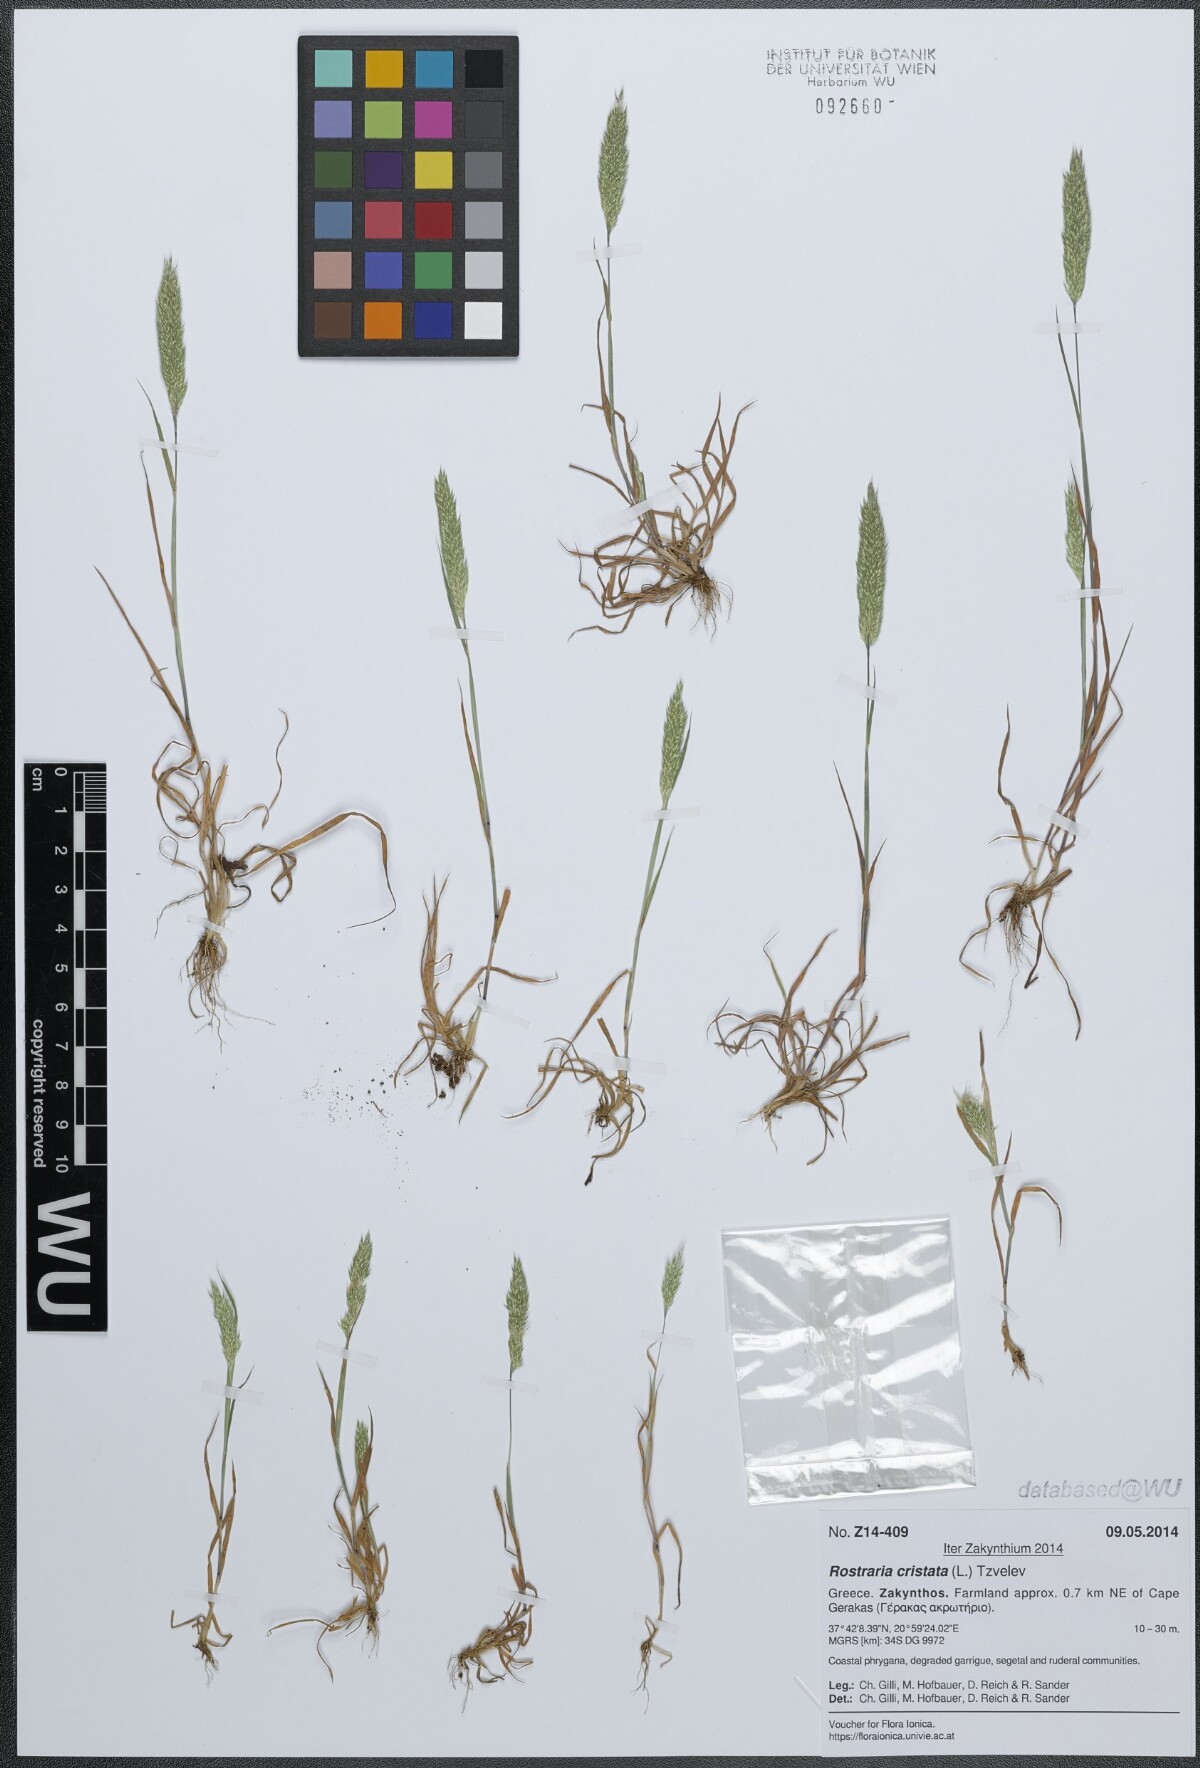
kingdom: Plantae
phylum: Tracheophyta
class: Liliopsida
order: Poales
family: Poaceae
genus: Rostraria
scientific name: Rostraria cristata
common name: Mediterranean hair-grass
